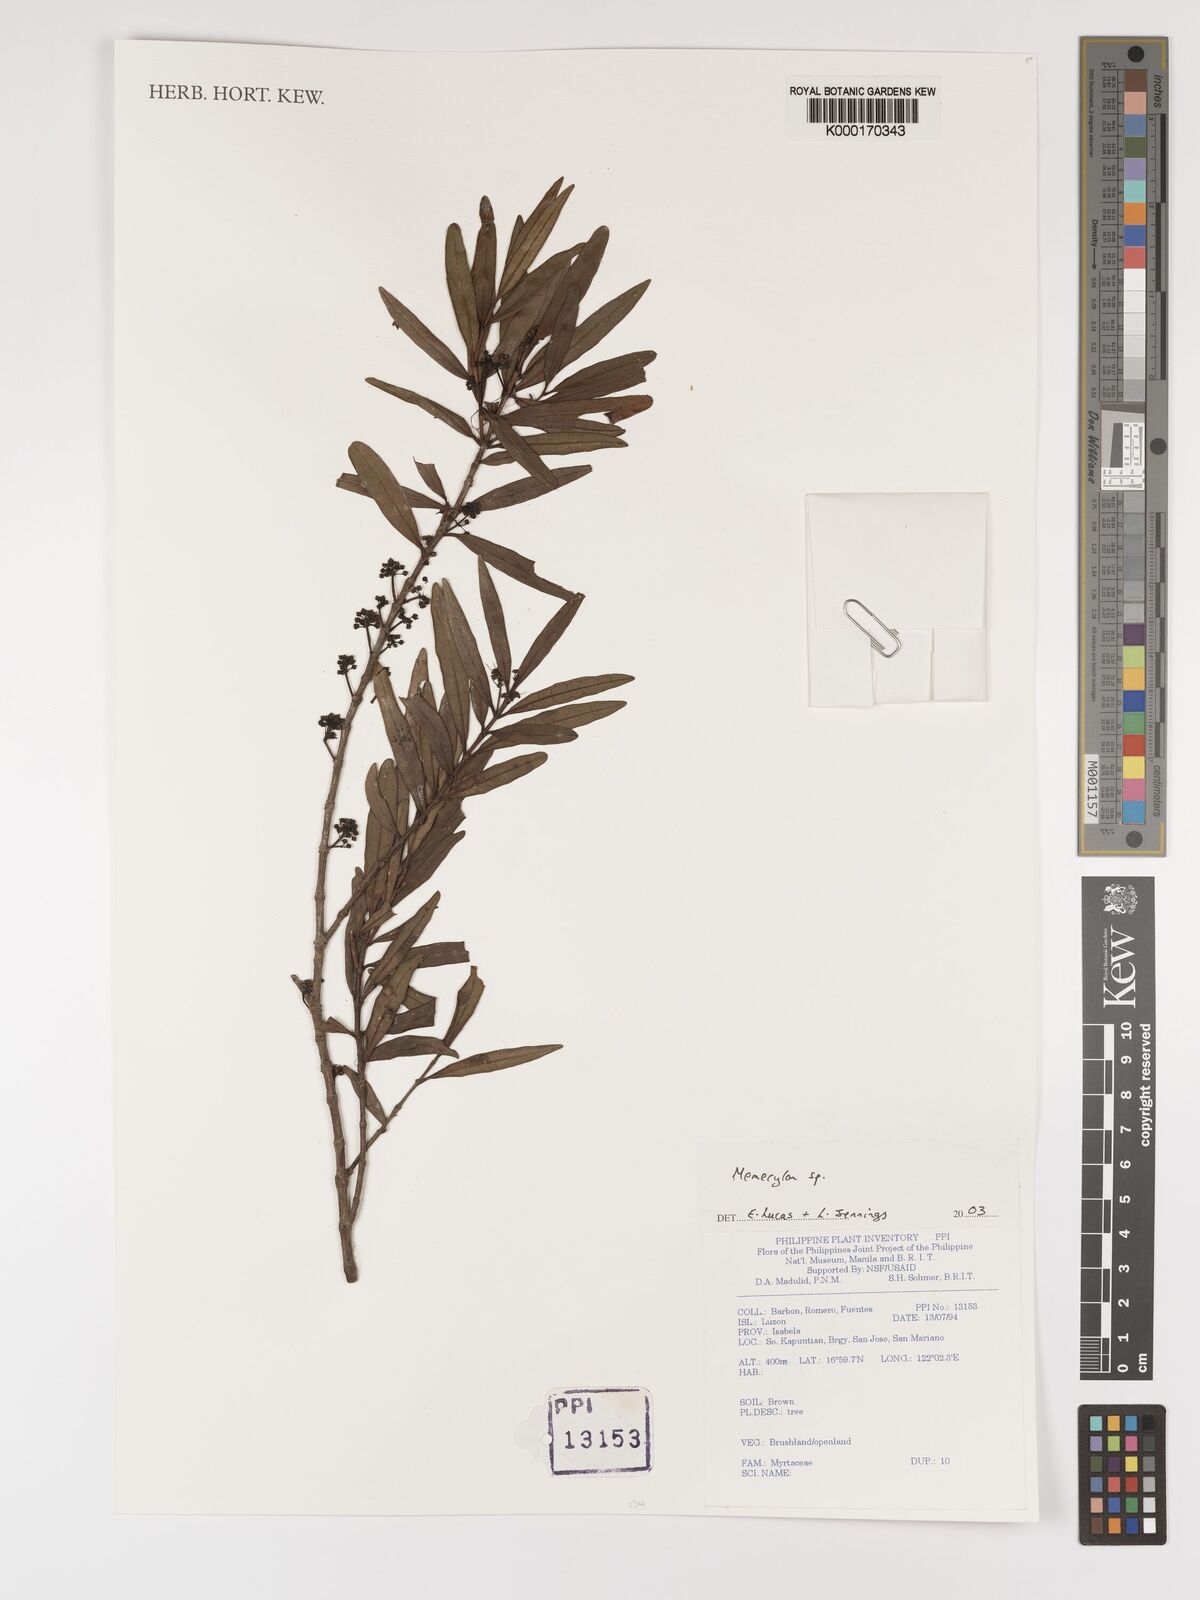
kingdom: Plantae
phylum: Tracheophyta
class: Magnoliopsida
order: Myrtales
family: Melastomataceae
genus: Memecylon
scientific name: Memecylon
